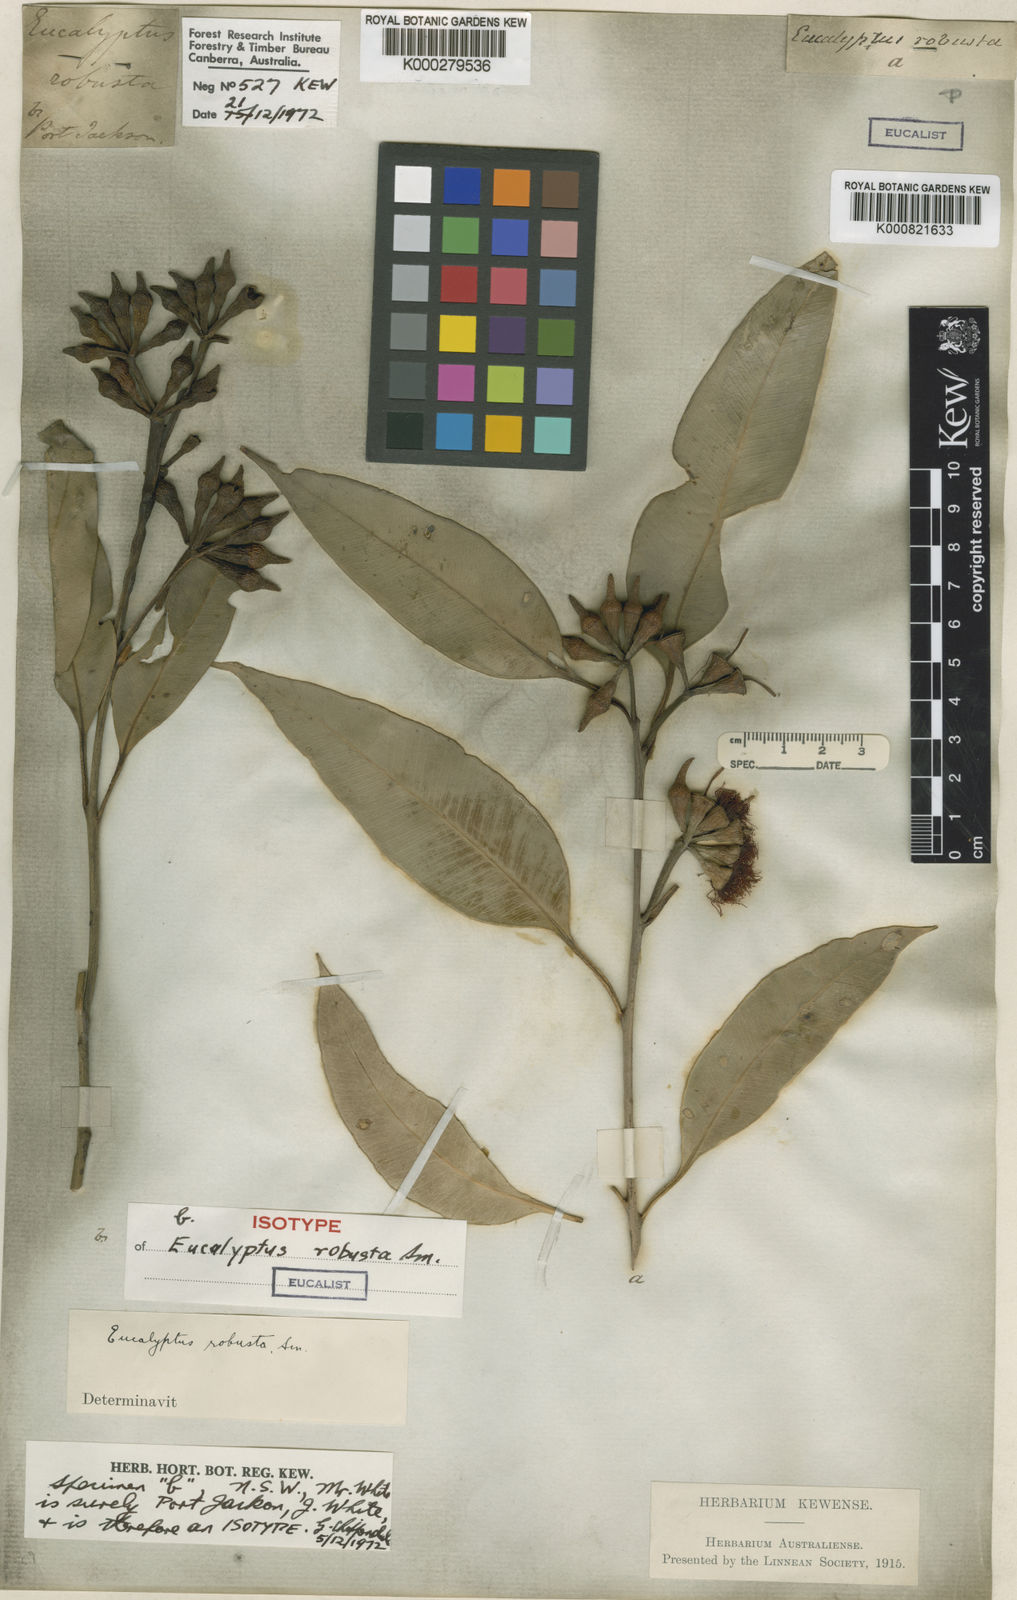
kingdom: Plantae
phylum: Tracheophyta
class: Magnoliopsida
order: Myrtales
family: Myrtaceae
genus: Eucalyptus
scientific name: Eucalyptus robusta
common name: Swampmahogany
